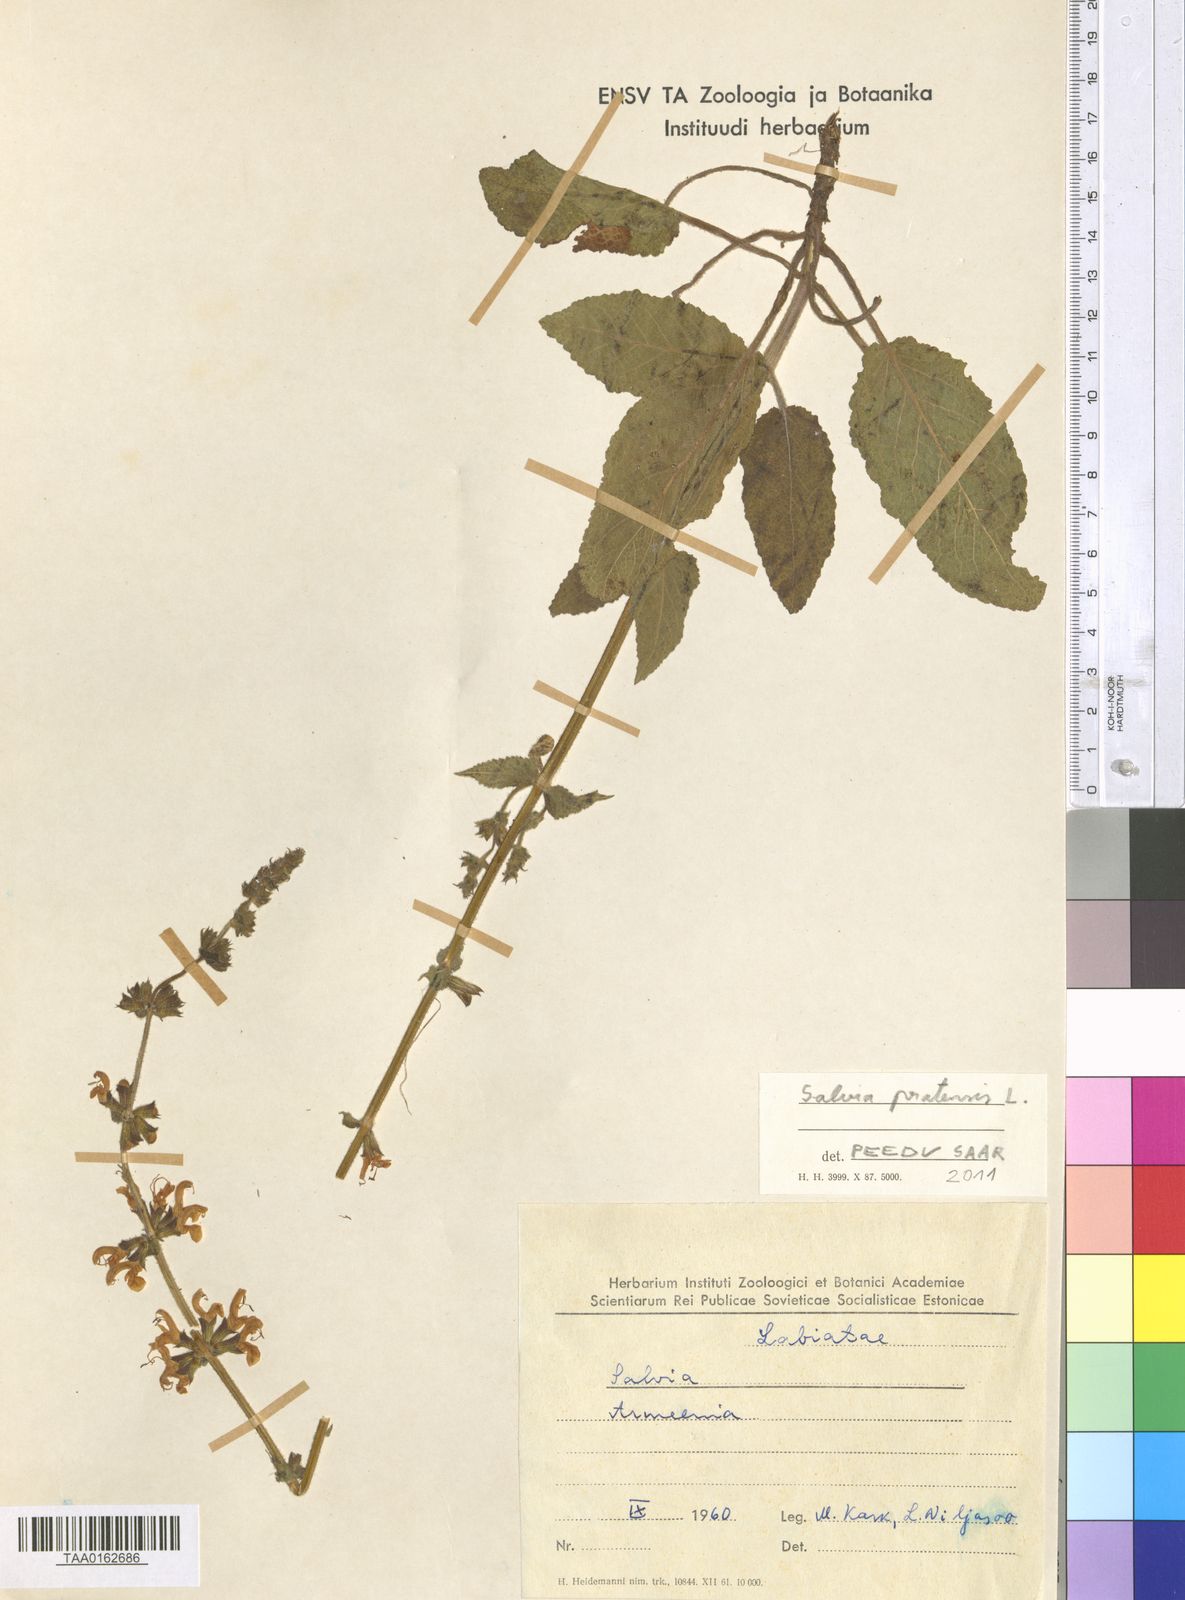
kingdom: Plantae
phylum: Tracheophyta
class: Magnoliopsida
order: Lamiales
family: Lamiaceae
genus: Salvia
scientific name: Salvia pratensis
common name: Meadow sage
